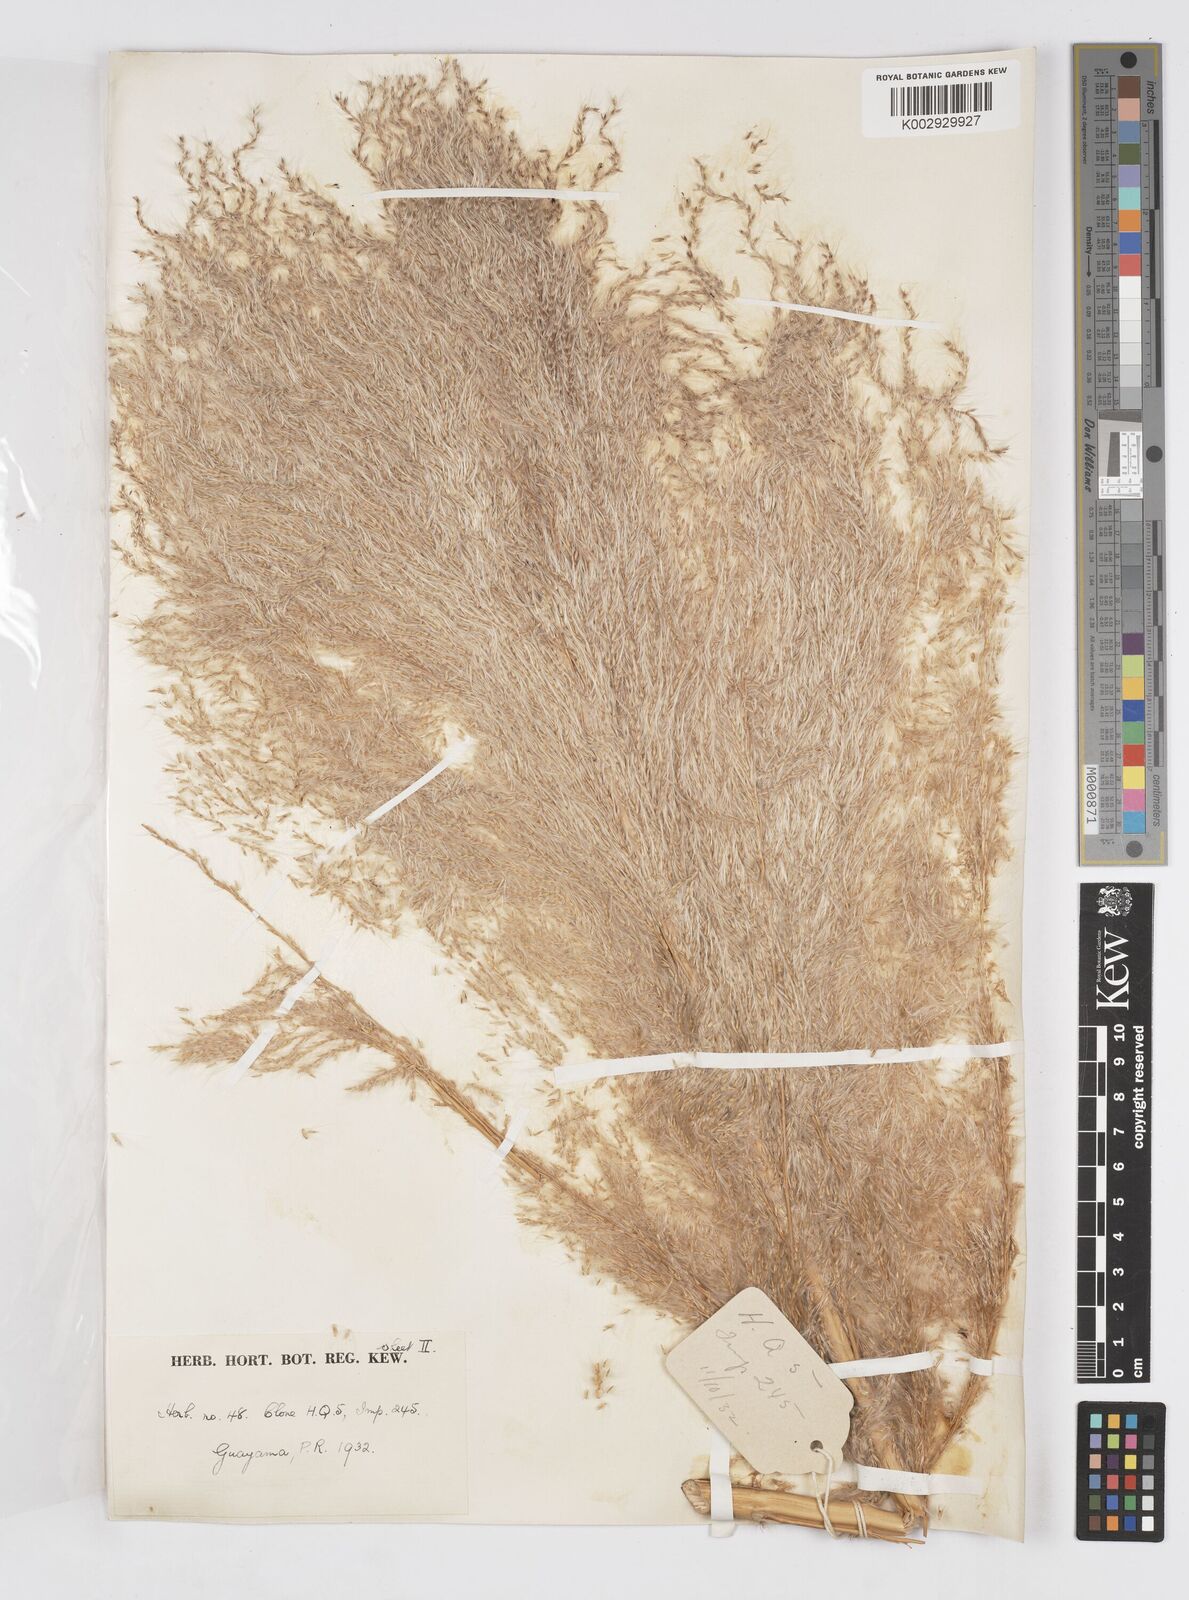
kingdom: Plantae
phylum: Tracheophyta
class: Liliopsida
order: Poales
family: Poaceae
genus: Saccharum
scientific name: Saccharum officinarum
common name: Sugarcane
